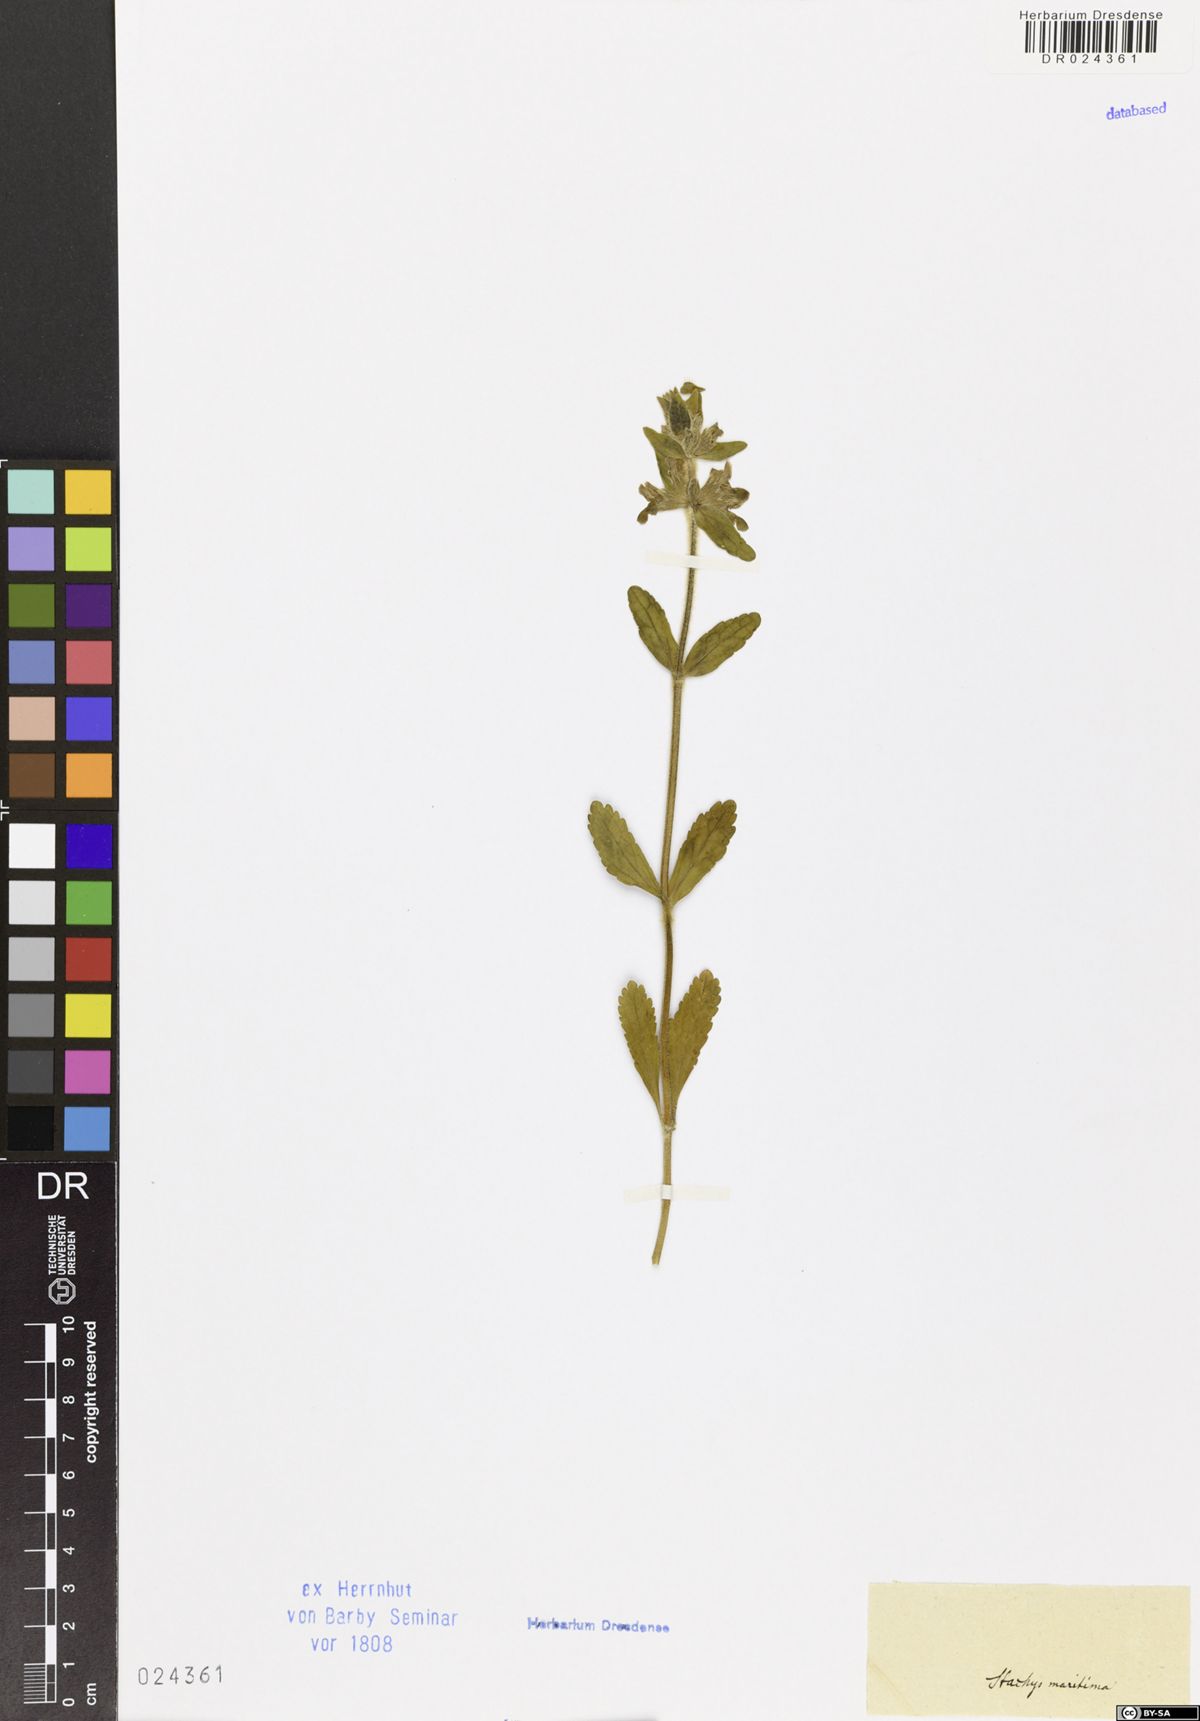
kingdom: Plantae
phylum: Tracheophyta
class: Magnoliopsida
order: Lamiales
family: Lamiaceae
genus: Stachys
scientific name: Stachys maritima
